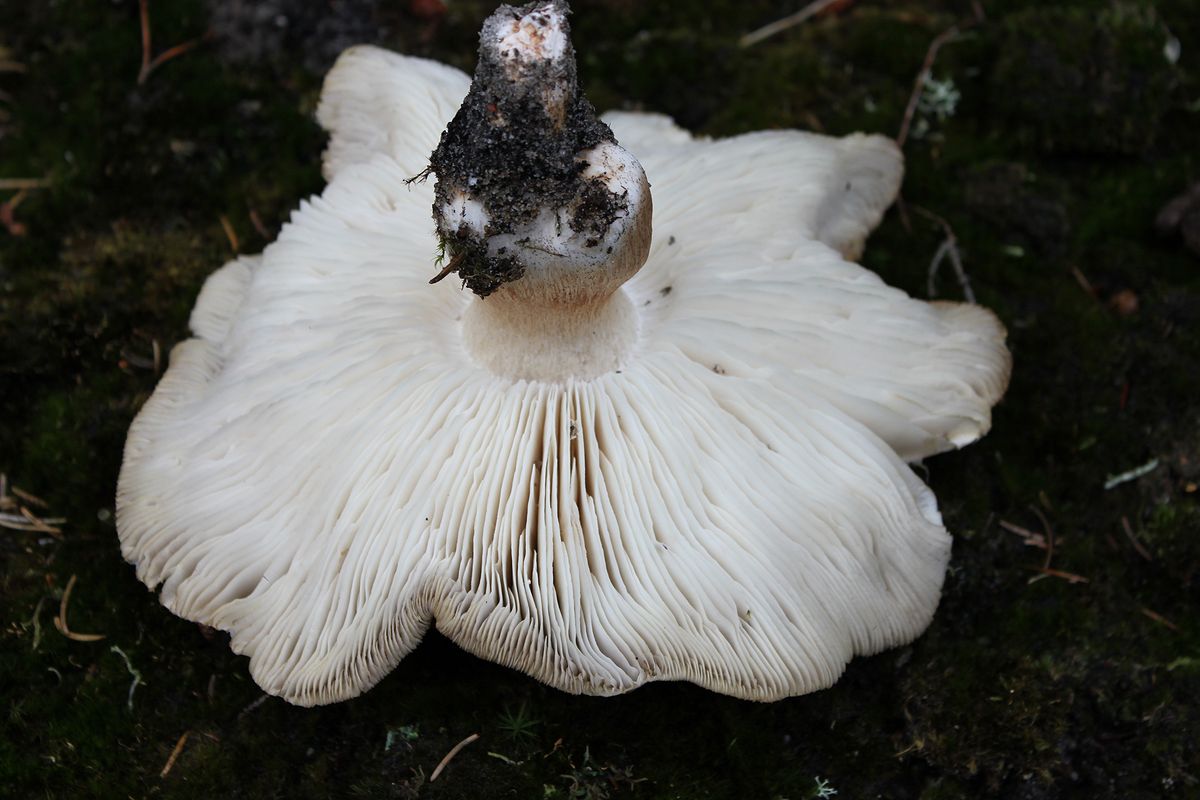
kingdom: Fungi
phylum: Basidiomycota
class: Agaricomycetes
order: Agaricales
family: Tricholomataceae
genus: Tricholoma
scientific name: Tricholoma arvernense
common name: kantet ridderhat
